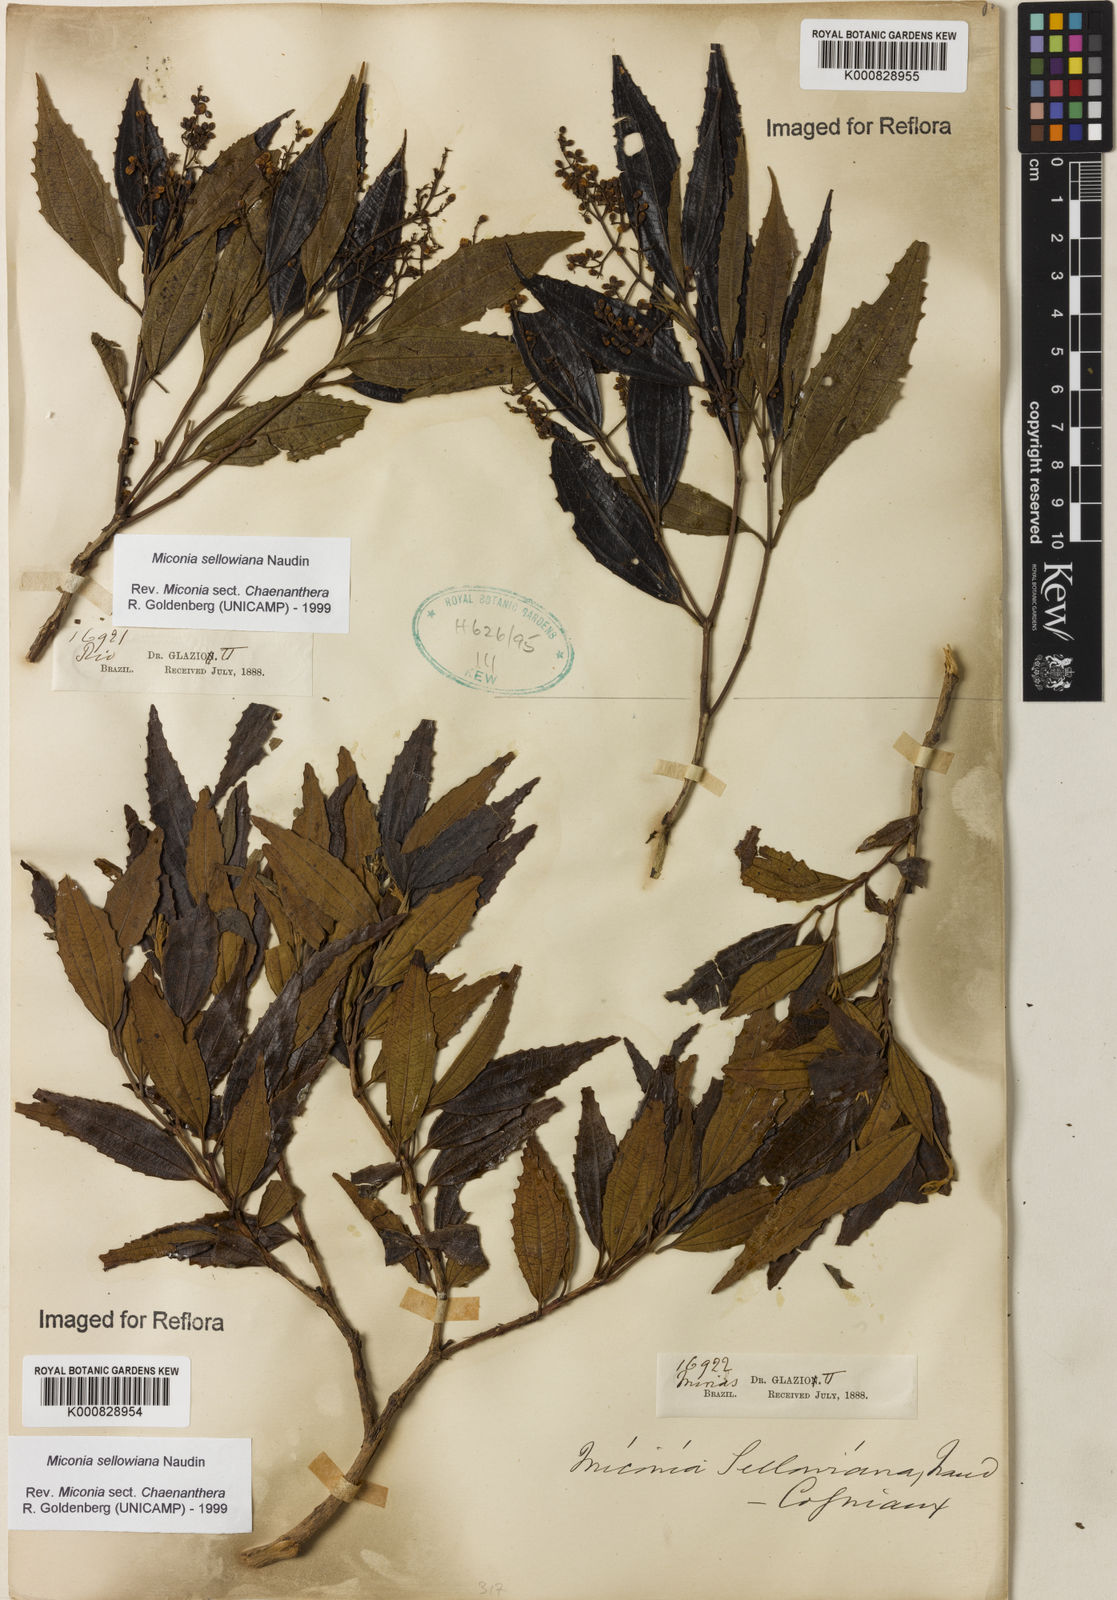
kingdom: Plantae
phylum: Tracheophyta
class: Magnoliopsida
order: Myrtales
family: Melastomataceae
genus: Miconia
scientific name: Miconia sellowiana
